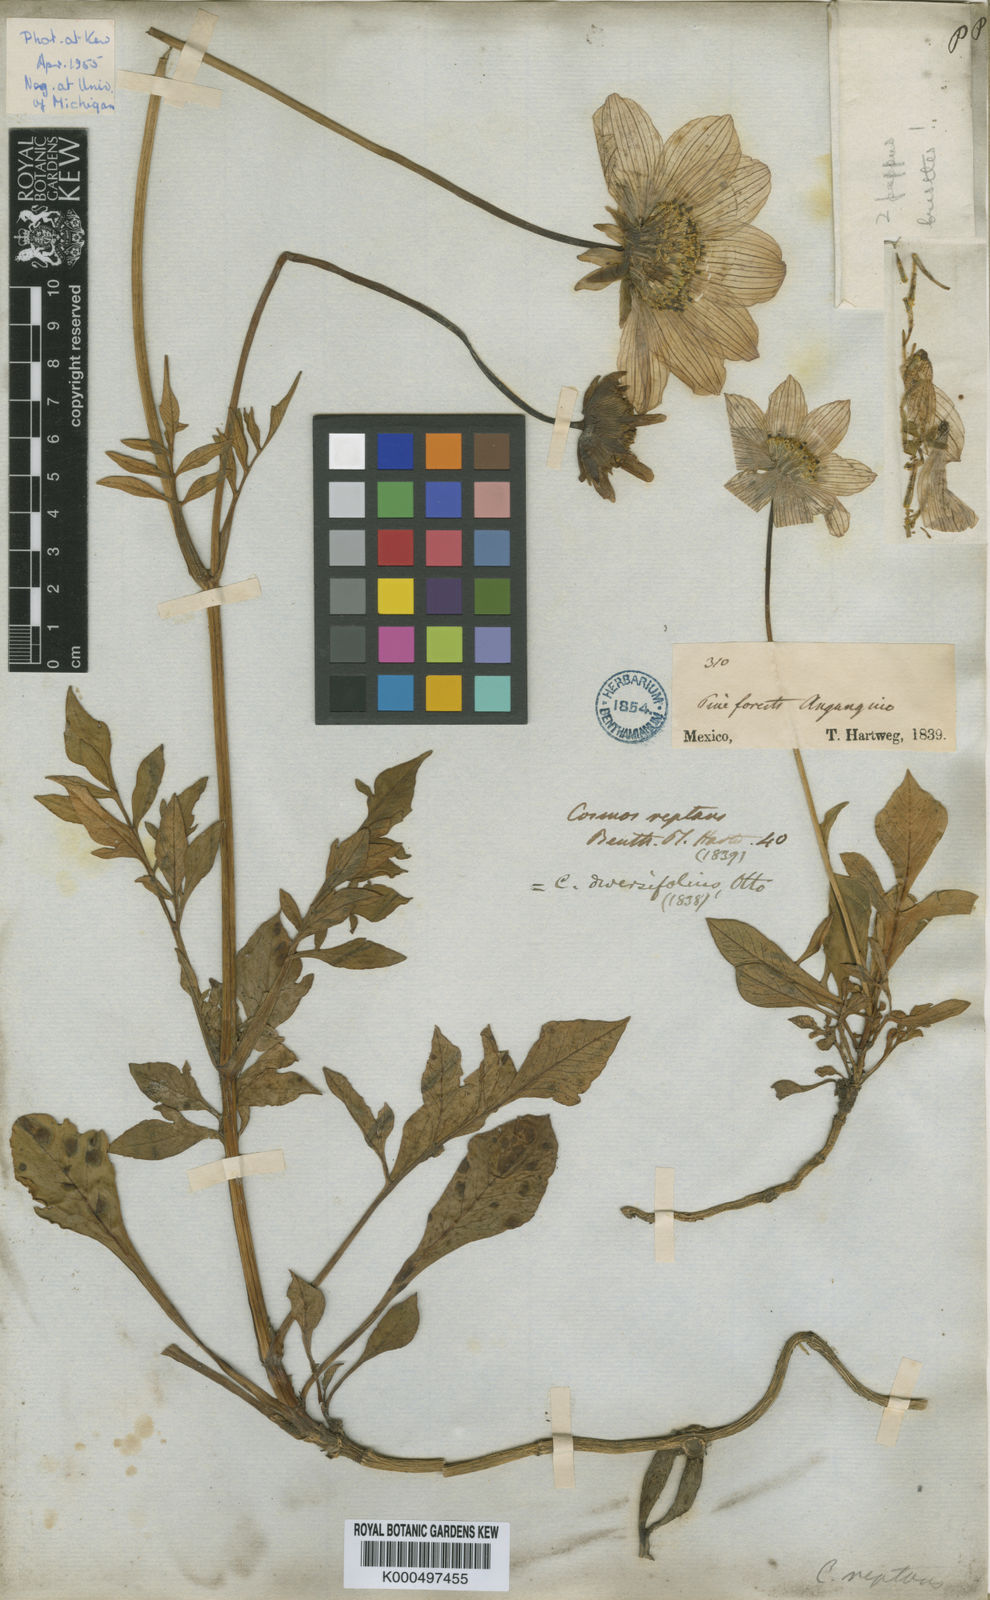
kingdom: Plantae
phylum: Tracheophyta
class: Magnoliopsida
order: Asterales
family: Asteraceae
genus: Cosmos
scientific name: Cosmos diversifolius
